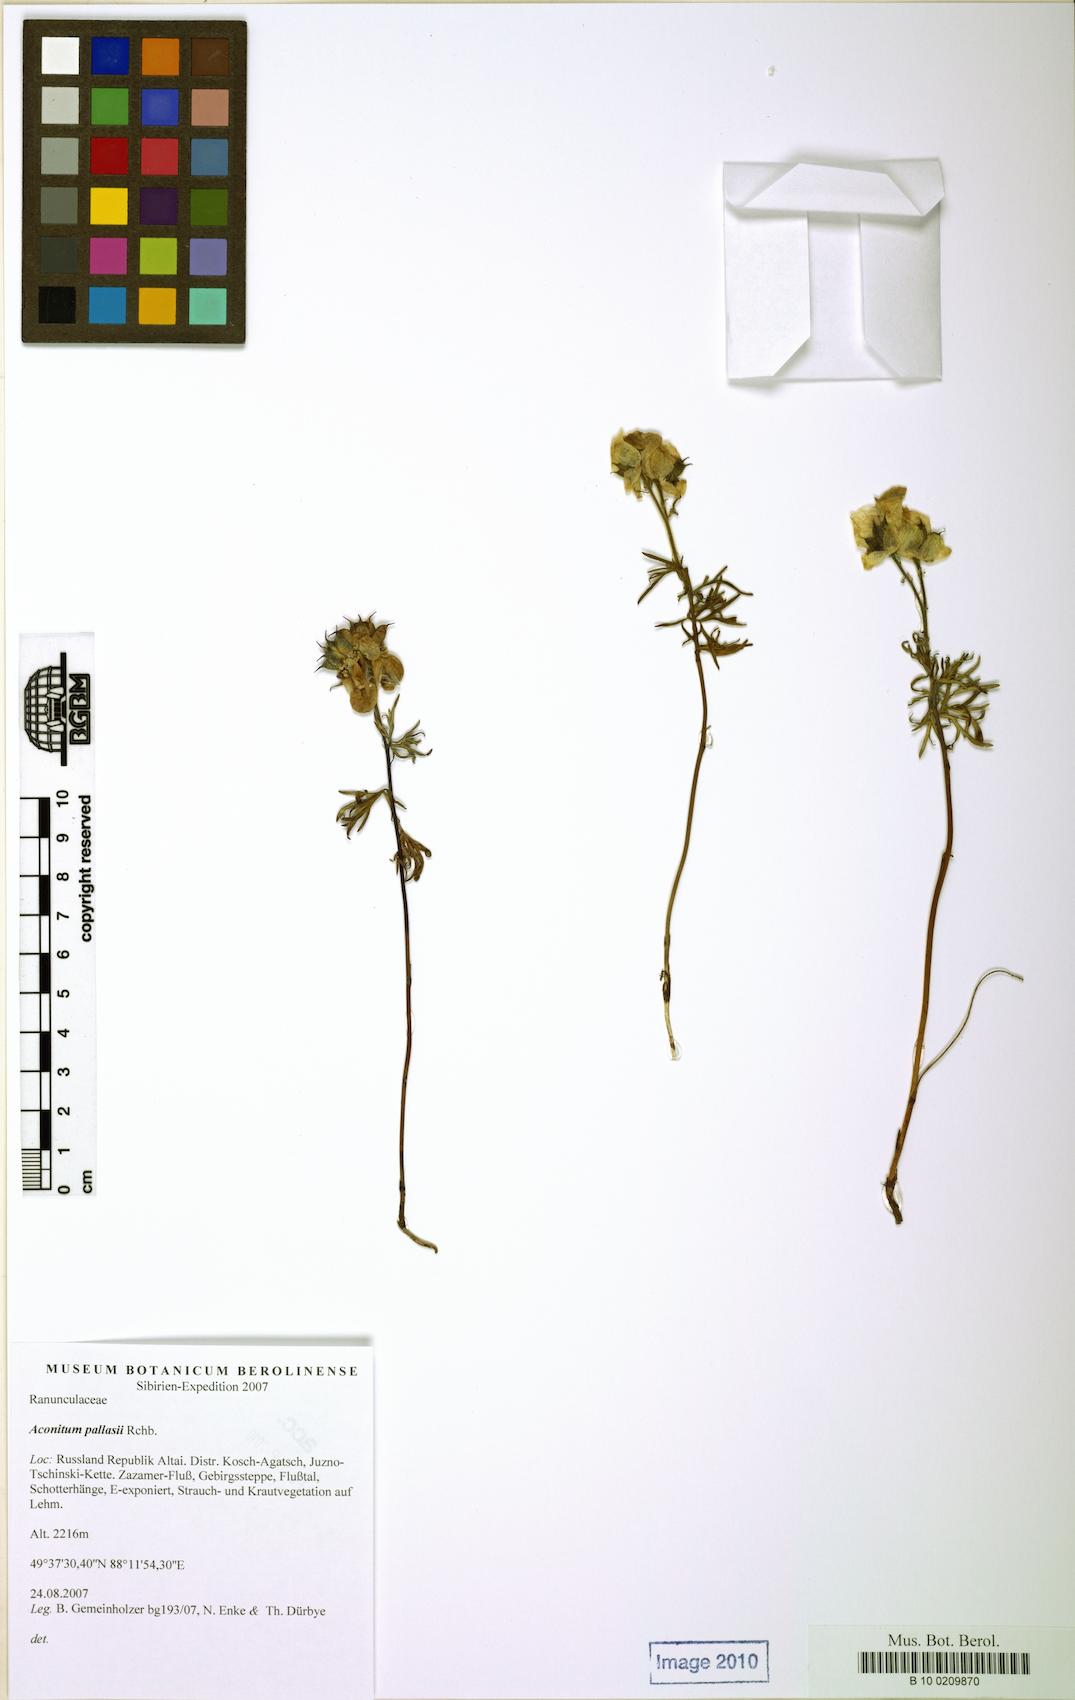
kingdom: Plantae
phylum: Tracheophyta
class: Magnoliopsida
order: Ranunculales
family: Ranunculaceae
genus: Aconitum
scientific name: Aconitum anthora
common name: Yellow monkshood
